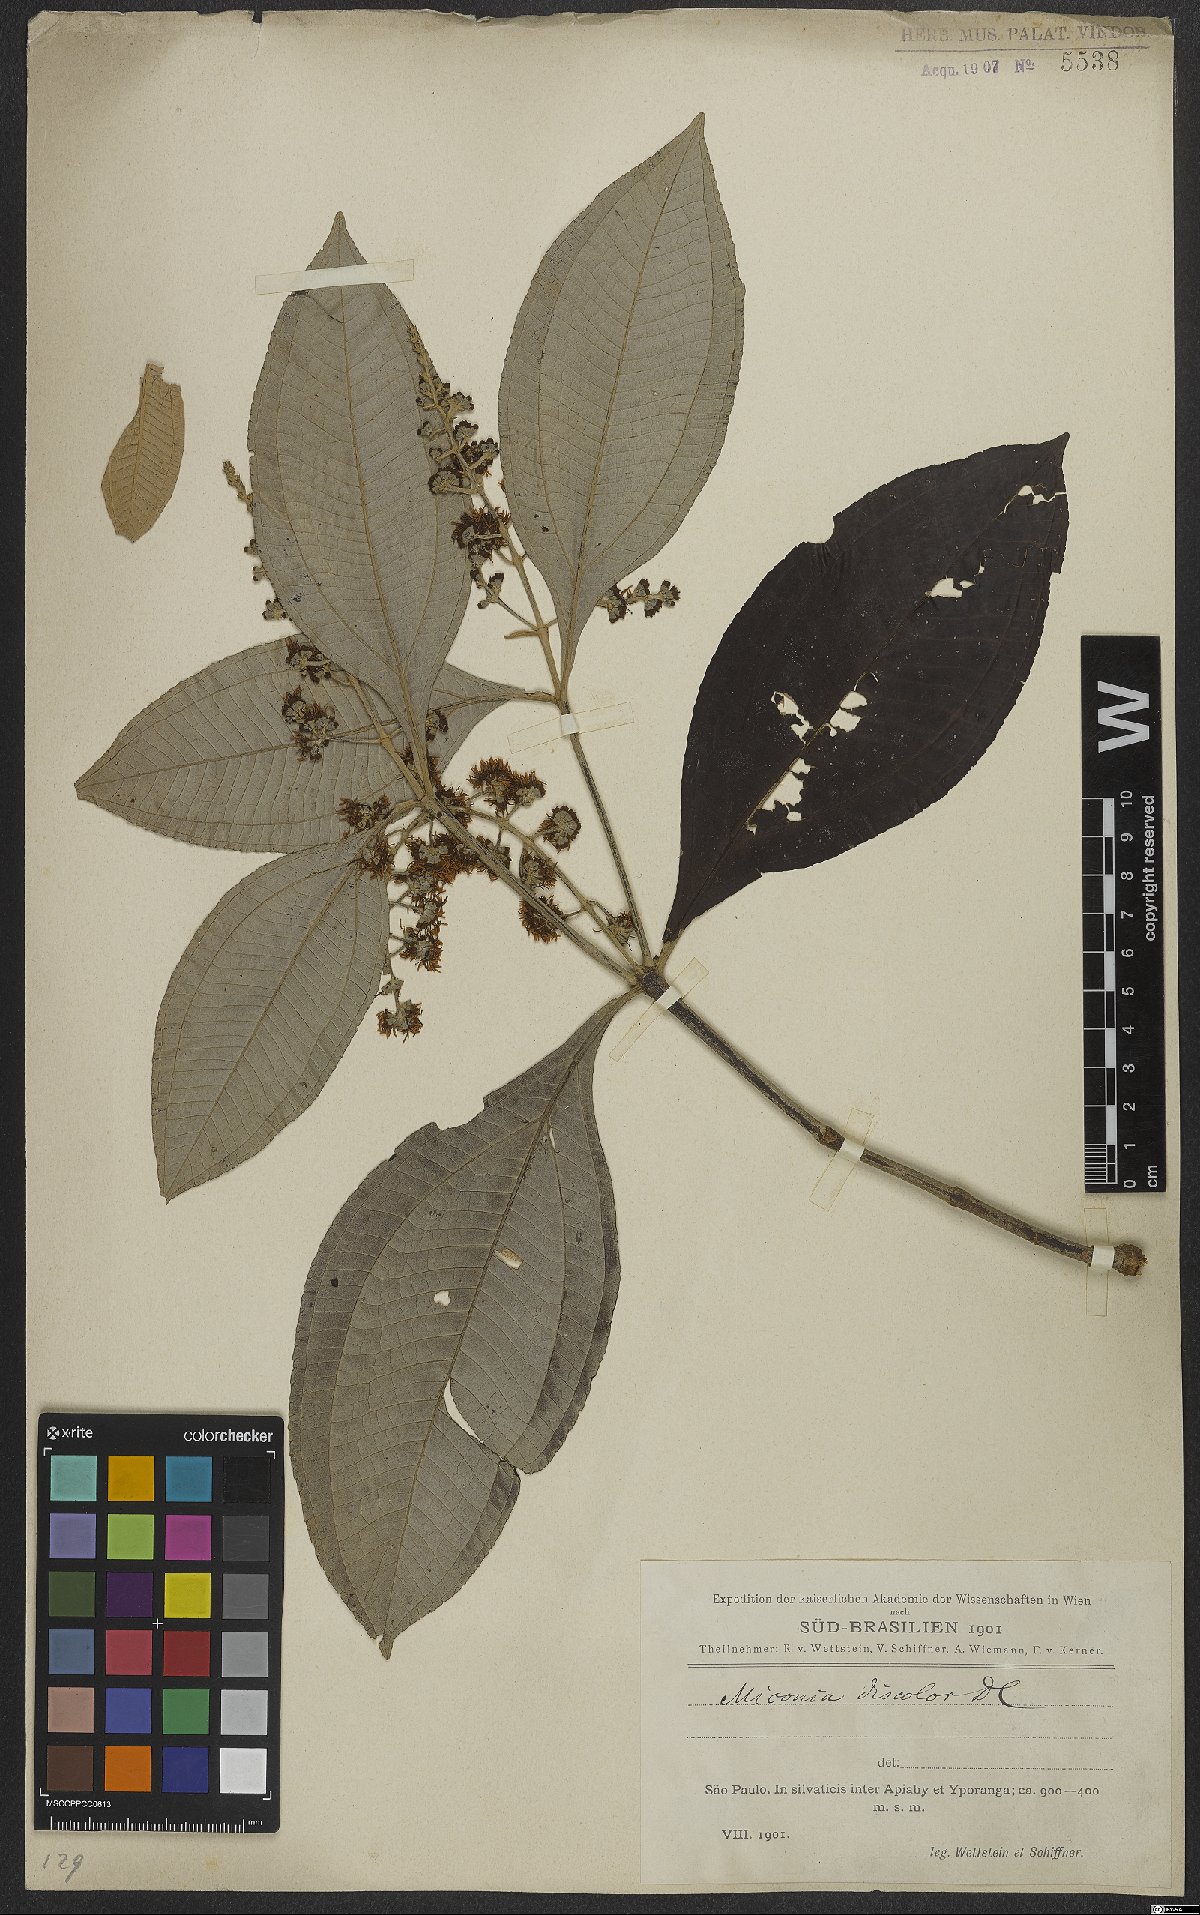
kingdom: Plantae
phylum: Tracheophyta
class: Magnoliopsida
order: Myrtales
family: Melastomataceae
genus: Miconia
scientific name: Miconia discolor
